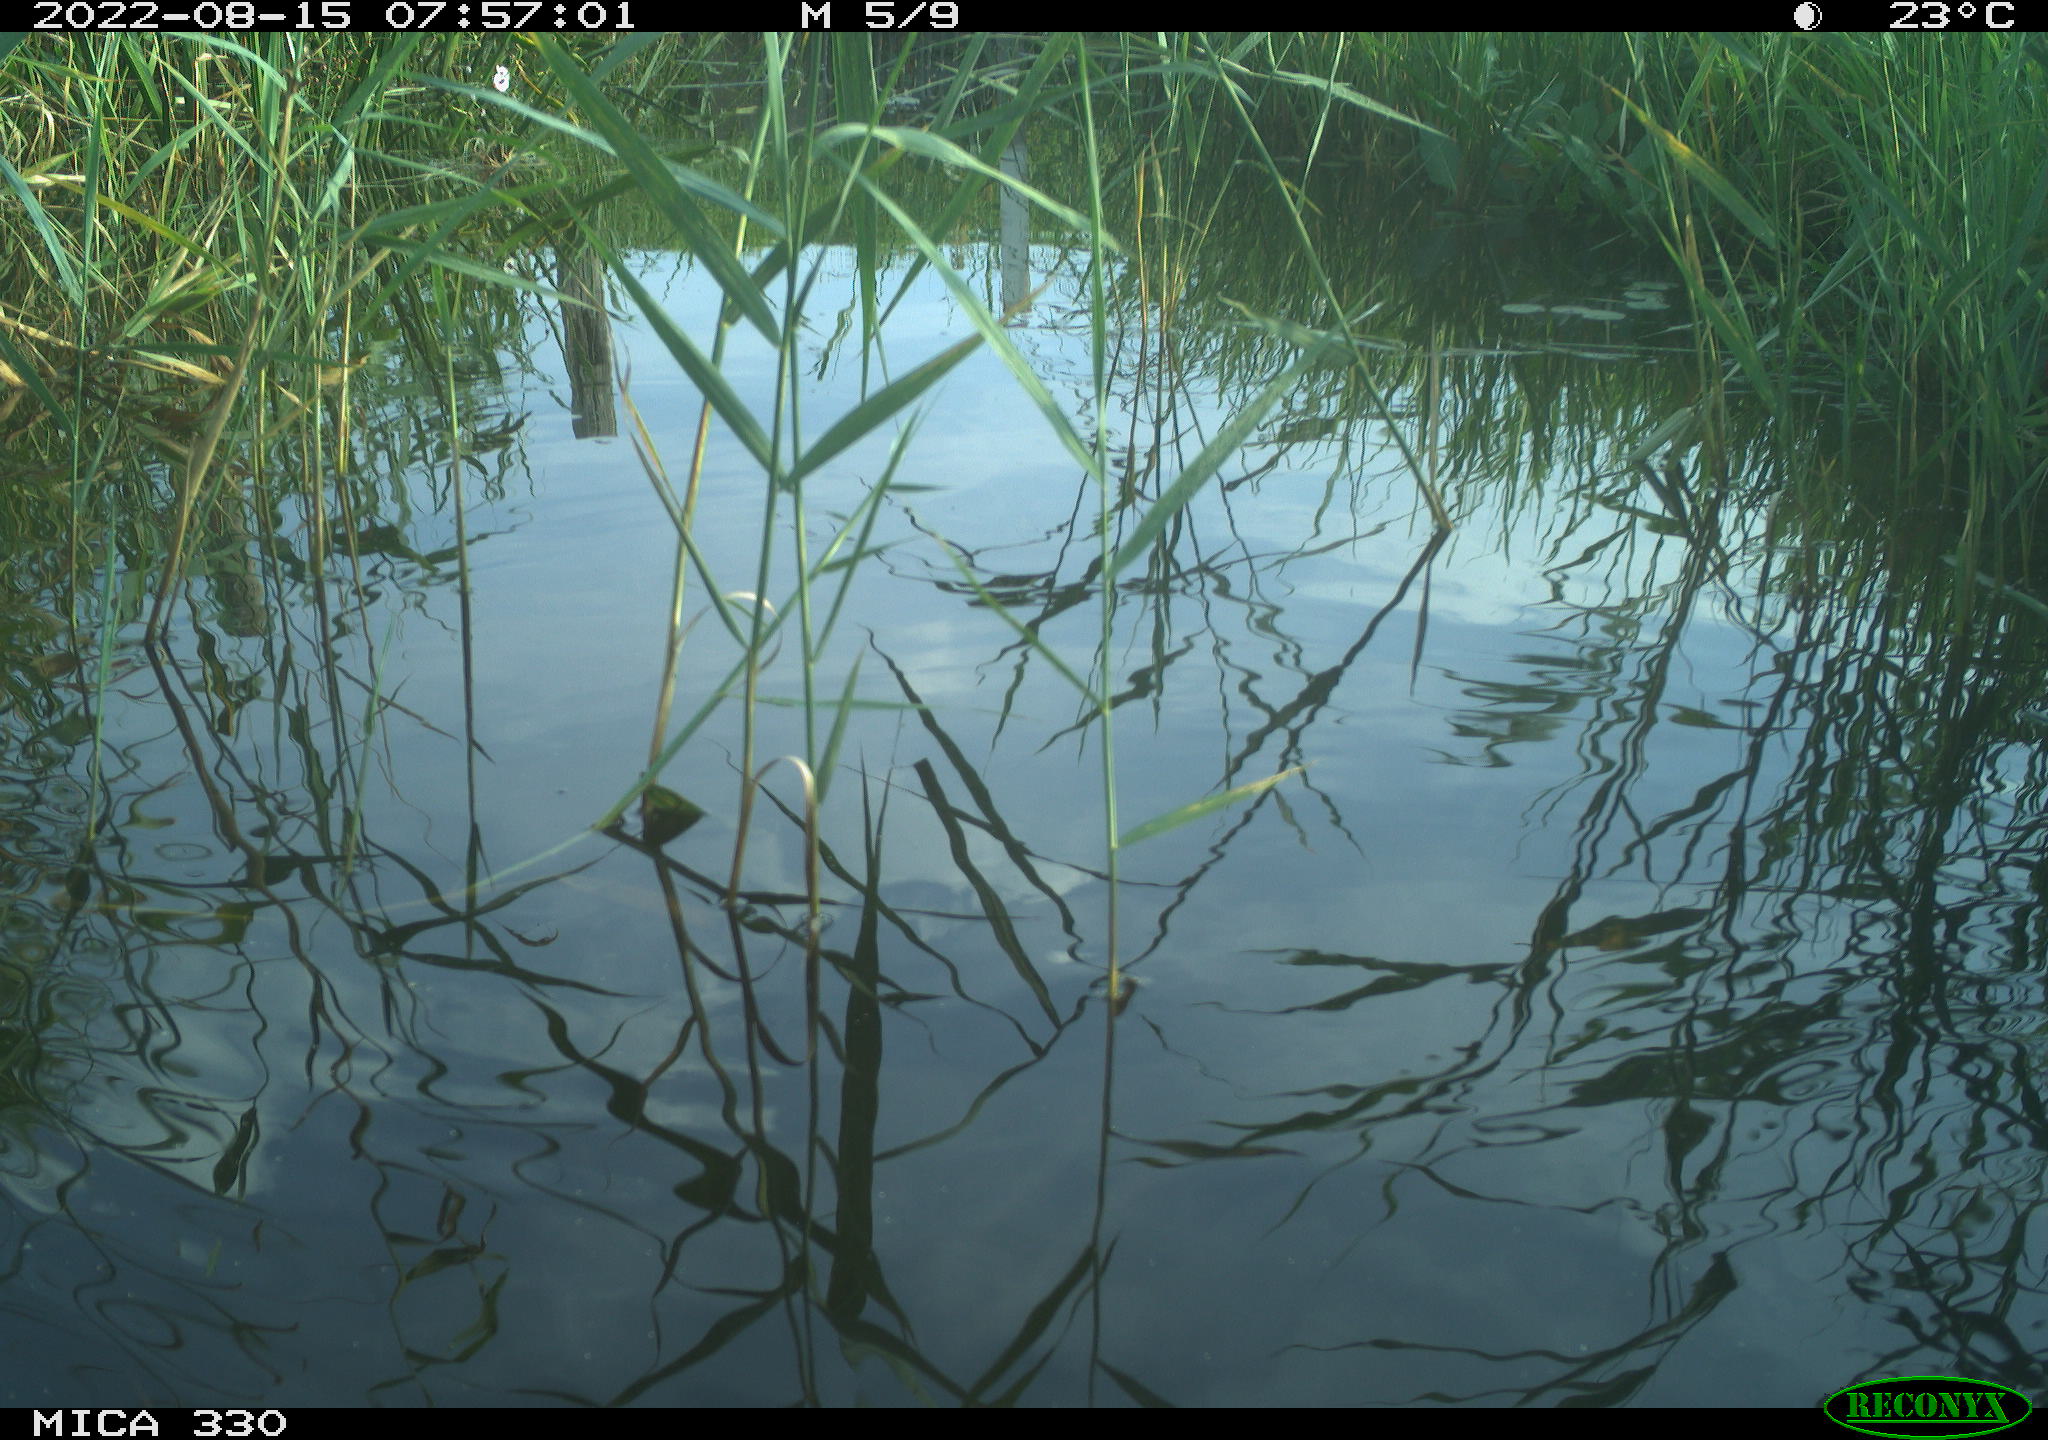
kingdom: Animalia
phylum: Chordata
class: Aves
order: Gruiformes
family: Rallidae
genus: Gallinula
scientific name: Gallinula chloropus
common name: Common moorhen
